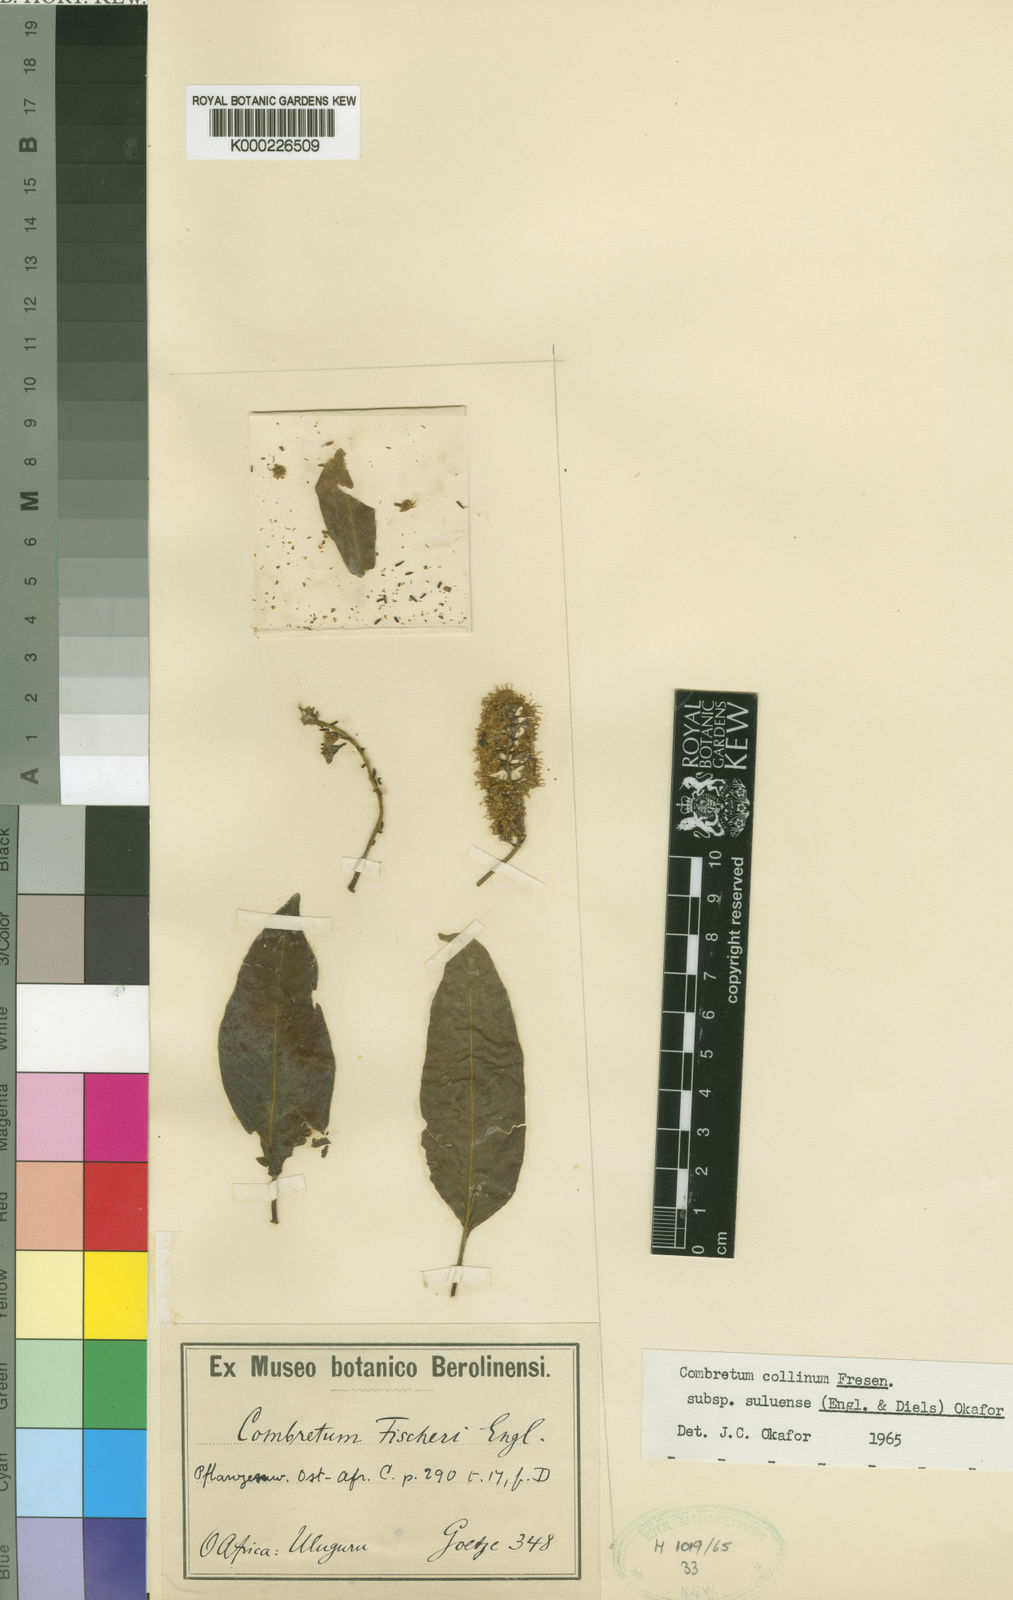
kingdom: Plantae
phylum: Tracheophyta
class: Magnoliopsida
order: Myrtales
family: Combretaceae
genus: Combretum
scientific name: Combretum collinum
